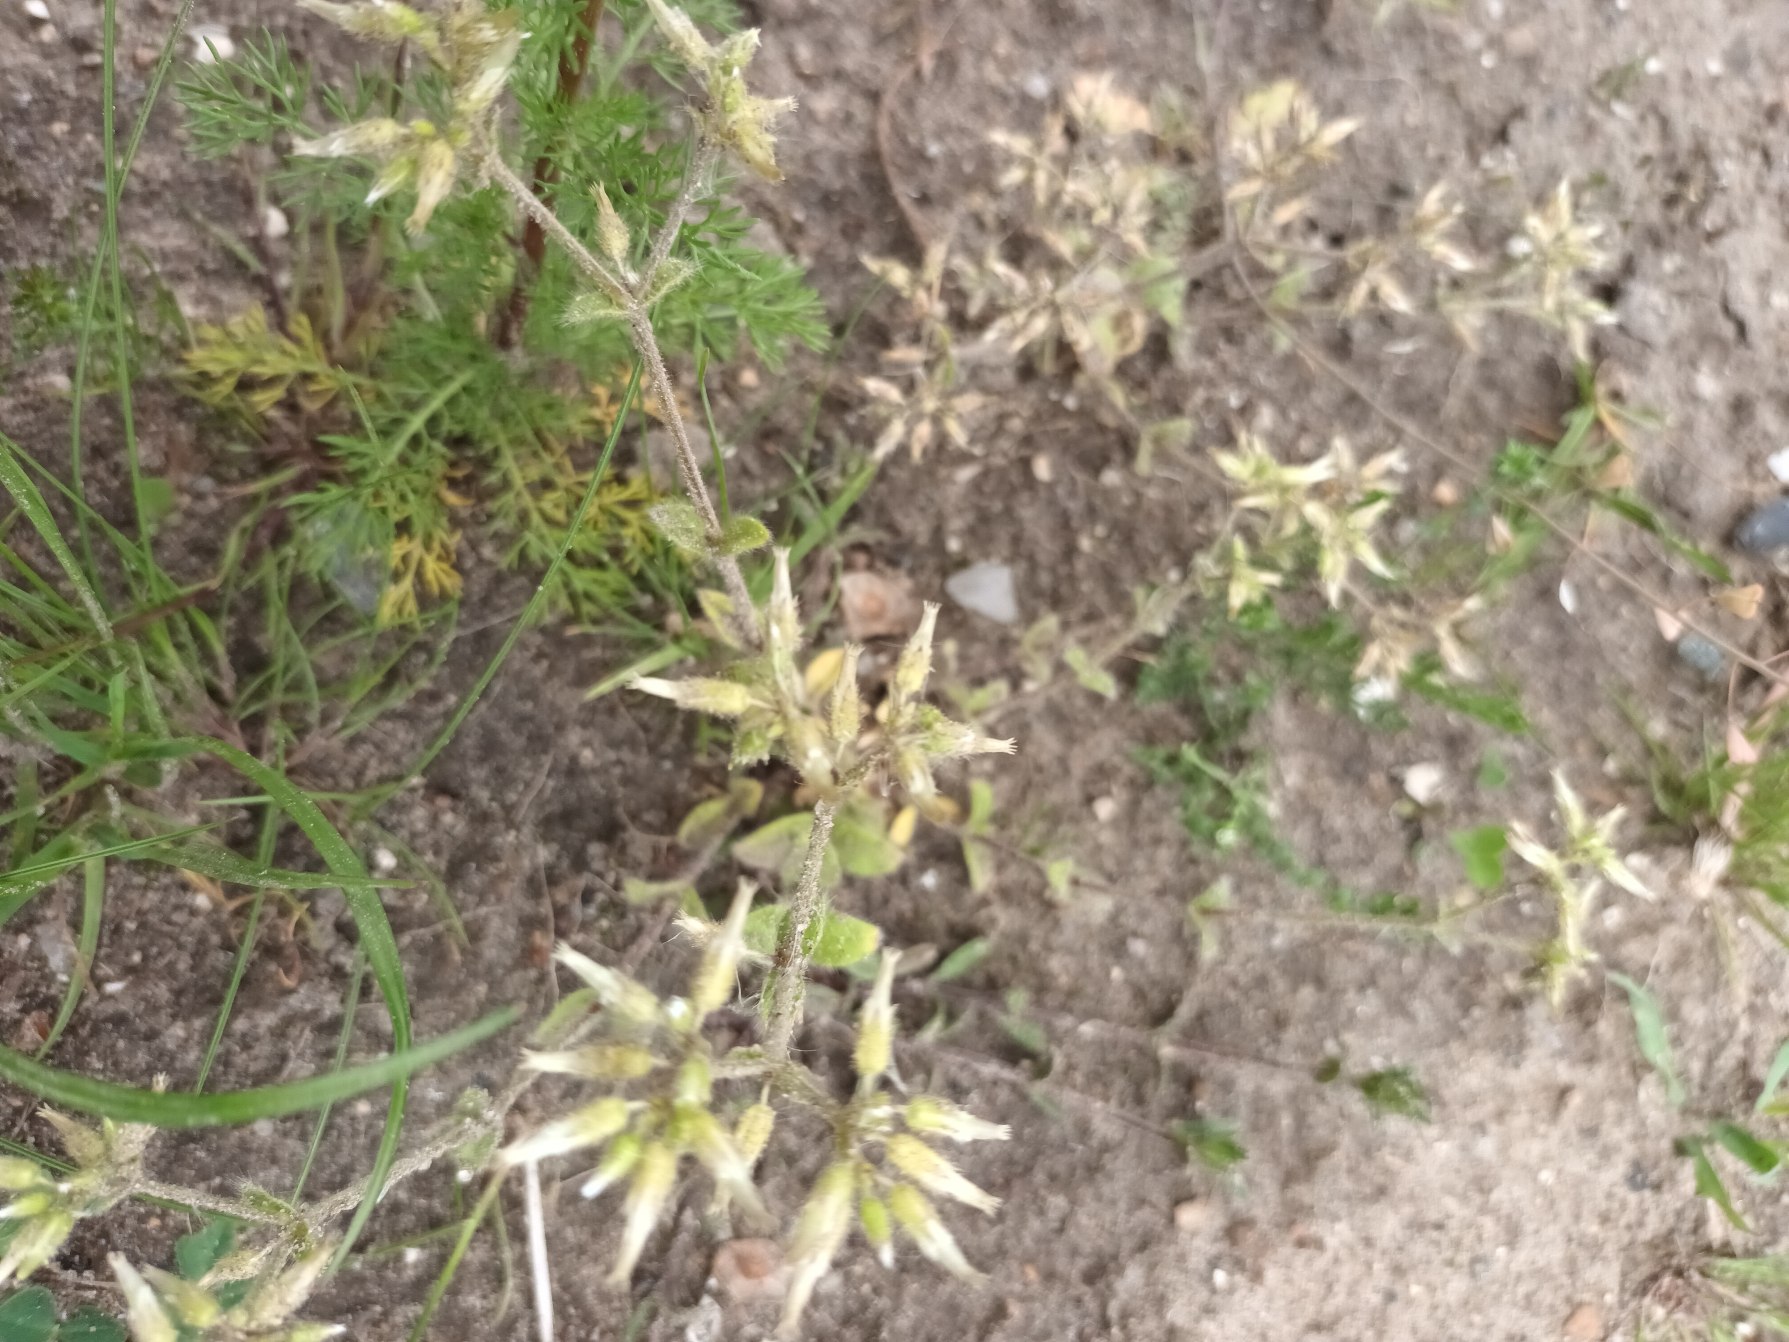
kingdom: Plantae
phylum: Tracheophyta
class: Magnoliopsida
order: Caryophyllales
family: Caryophyllaceae
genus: Cerastium
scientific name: Cerastium glomeratum
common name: Opret hønsetarm
